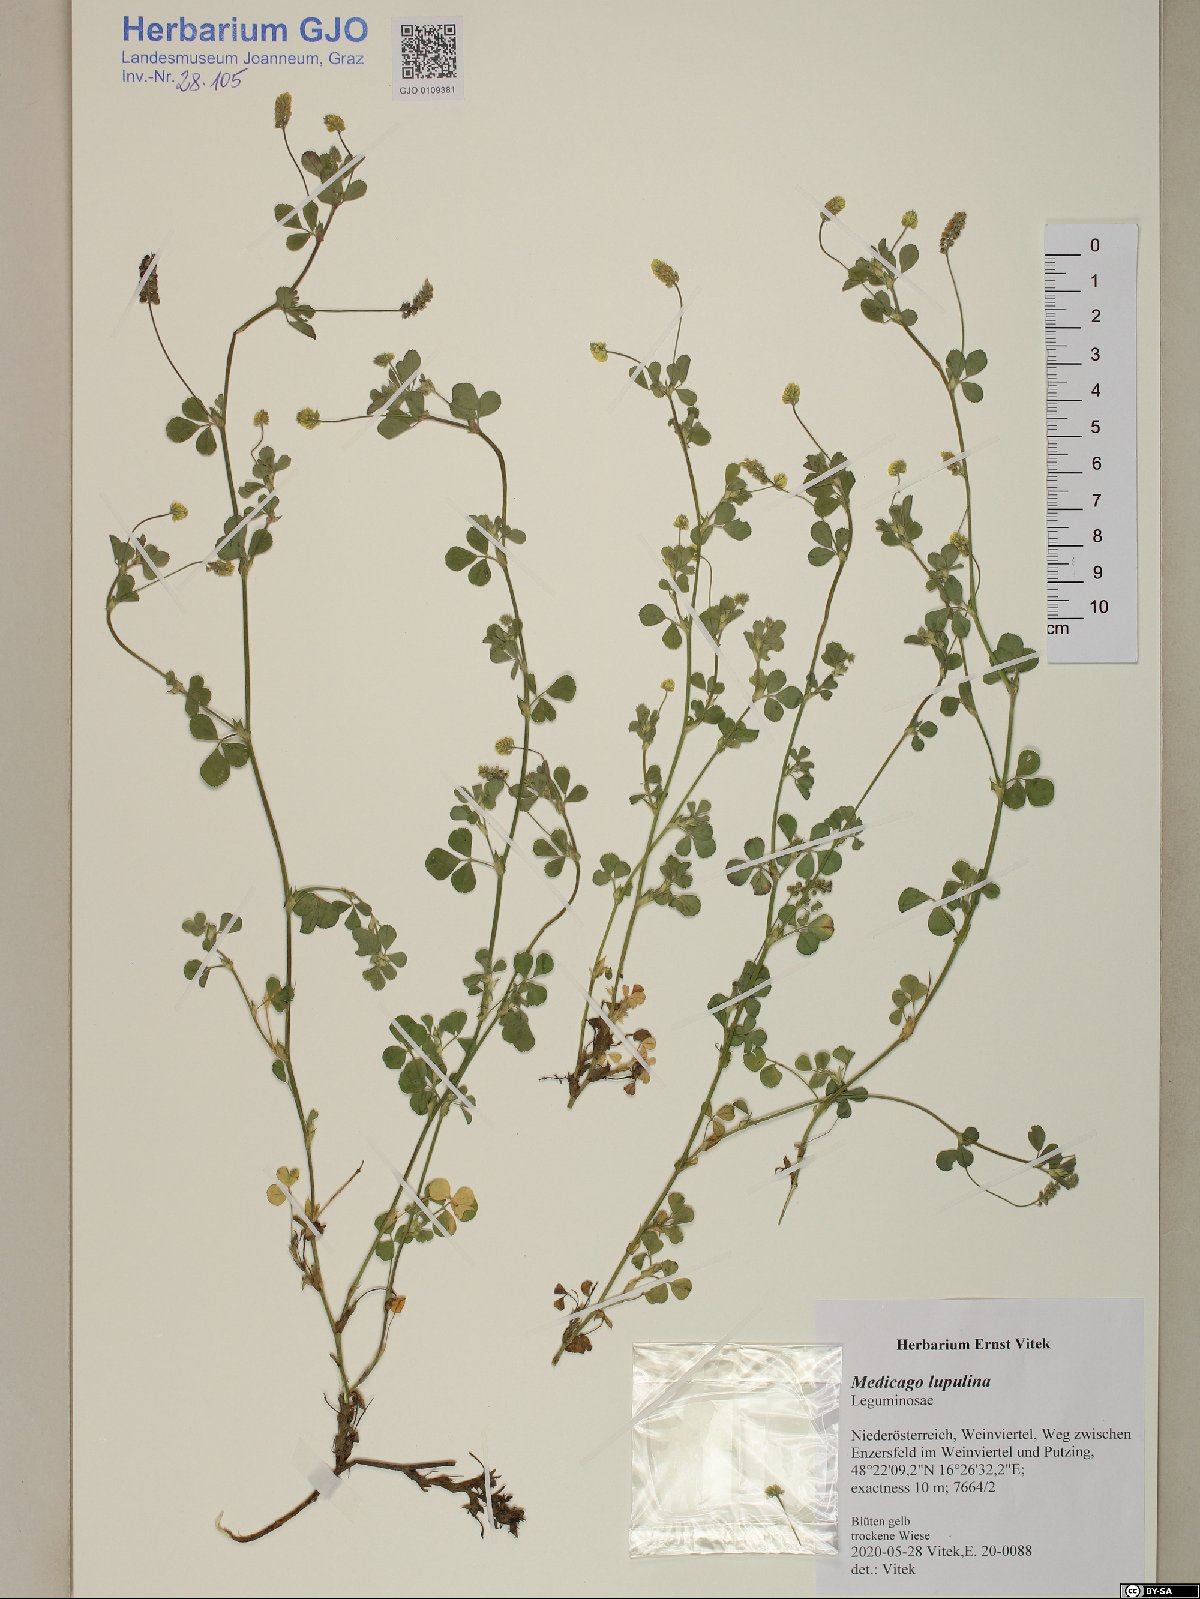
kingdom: Plantae
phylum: Tracheophyta
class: Magnoliopsida
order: Fabales
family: Fabaceae
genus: Medicago
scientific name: Medicago lupulina
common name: Black medick
